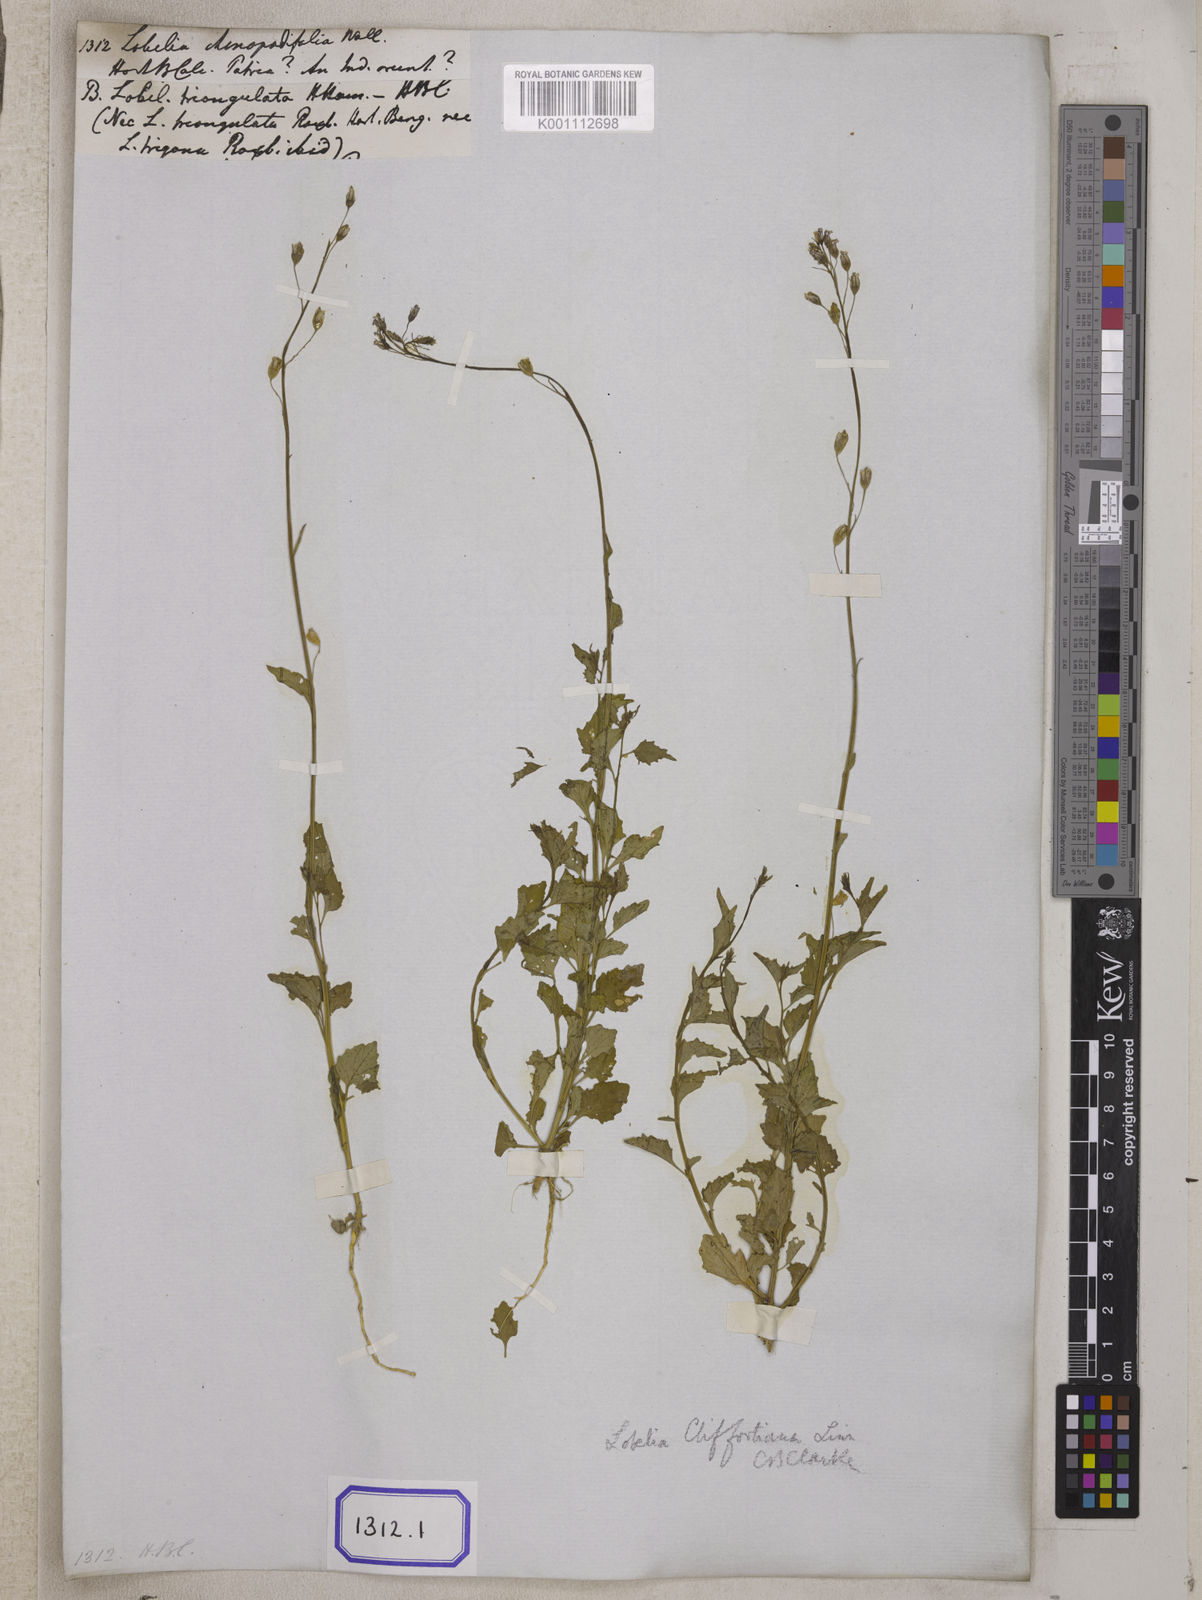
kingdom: Plantae
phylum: Tracheophyta
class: Magnoliopsida
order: Asterales
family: Campanulaceae
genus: Lobelia
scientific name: Lobelia
